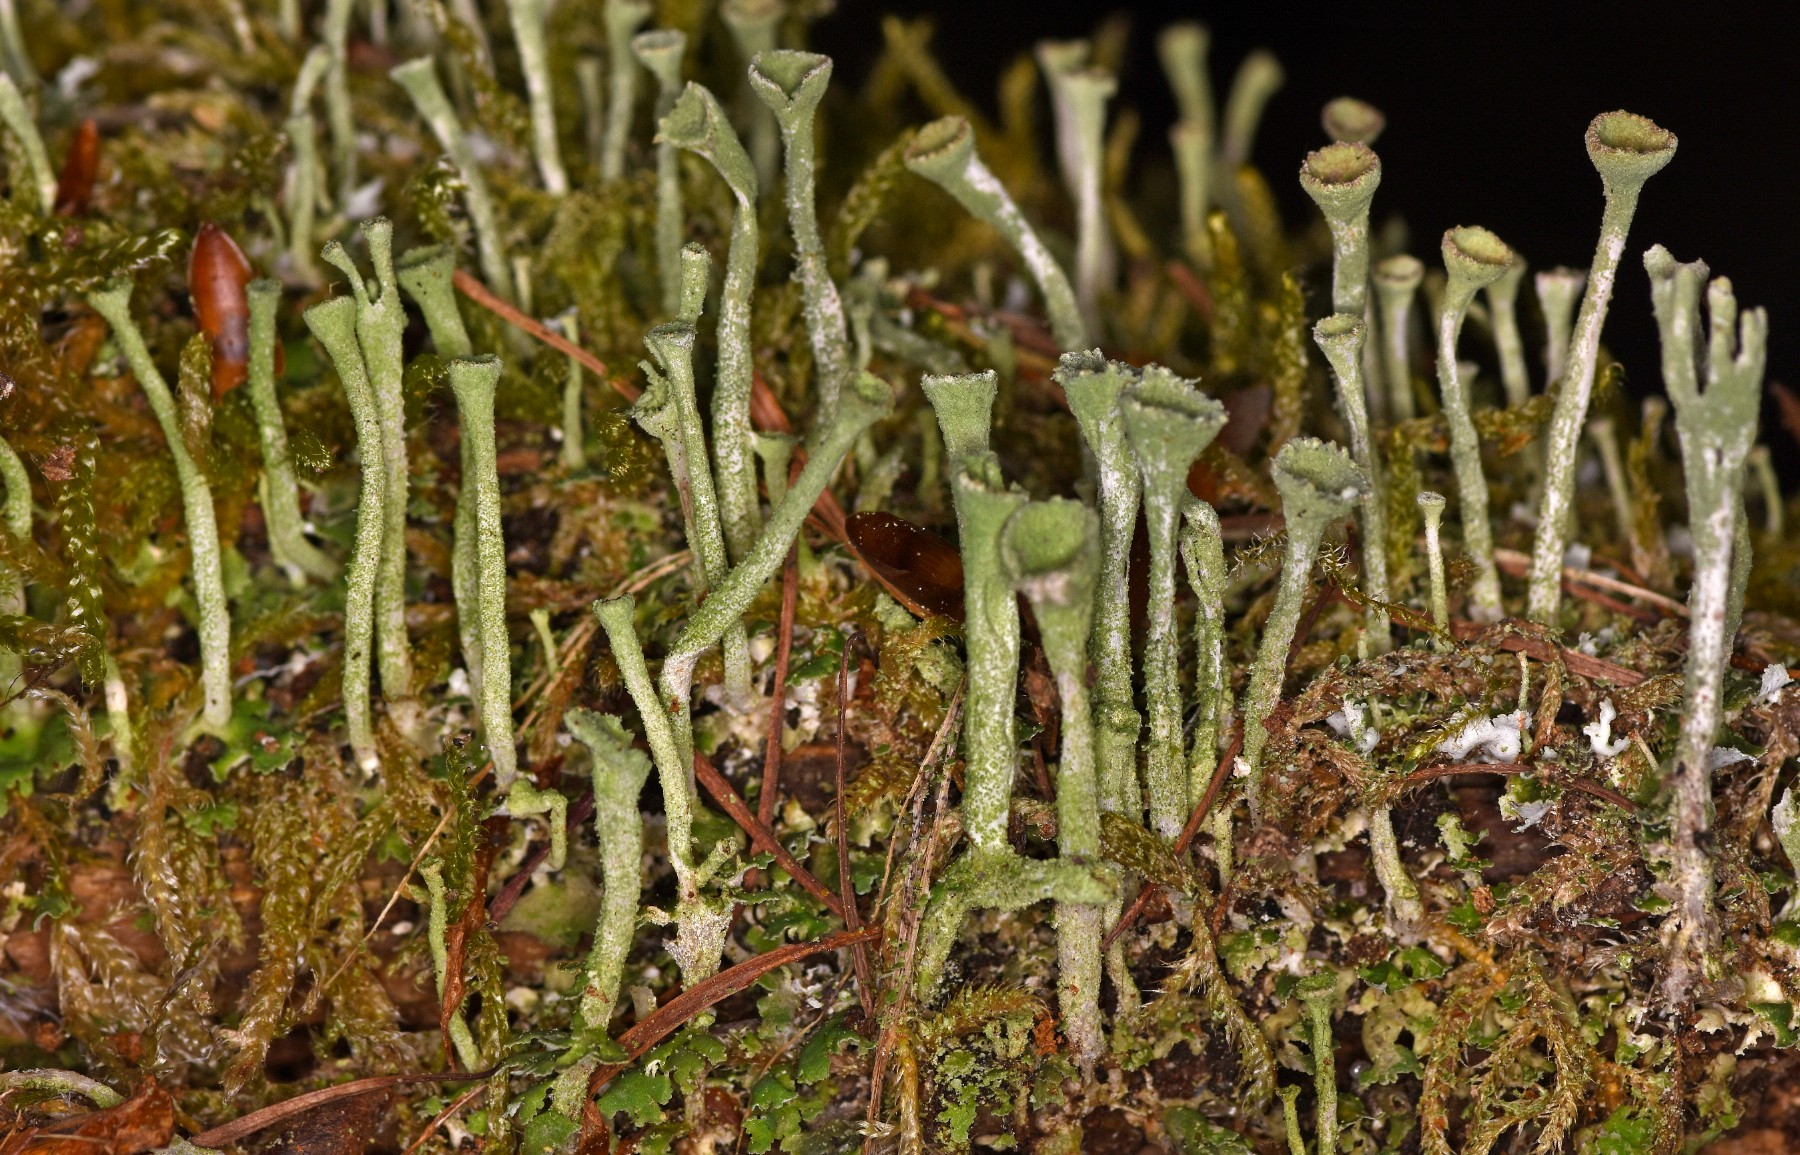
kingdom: Fungi
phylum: Ascomycota
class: Lecanoromycetes
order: Lecanorales
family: Cladoniaceae
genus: Cladonia
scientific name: Cladonia fimbriata
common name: bleggrøn bægerlav
